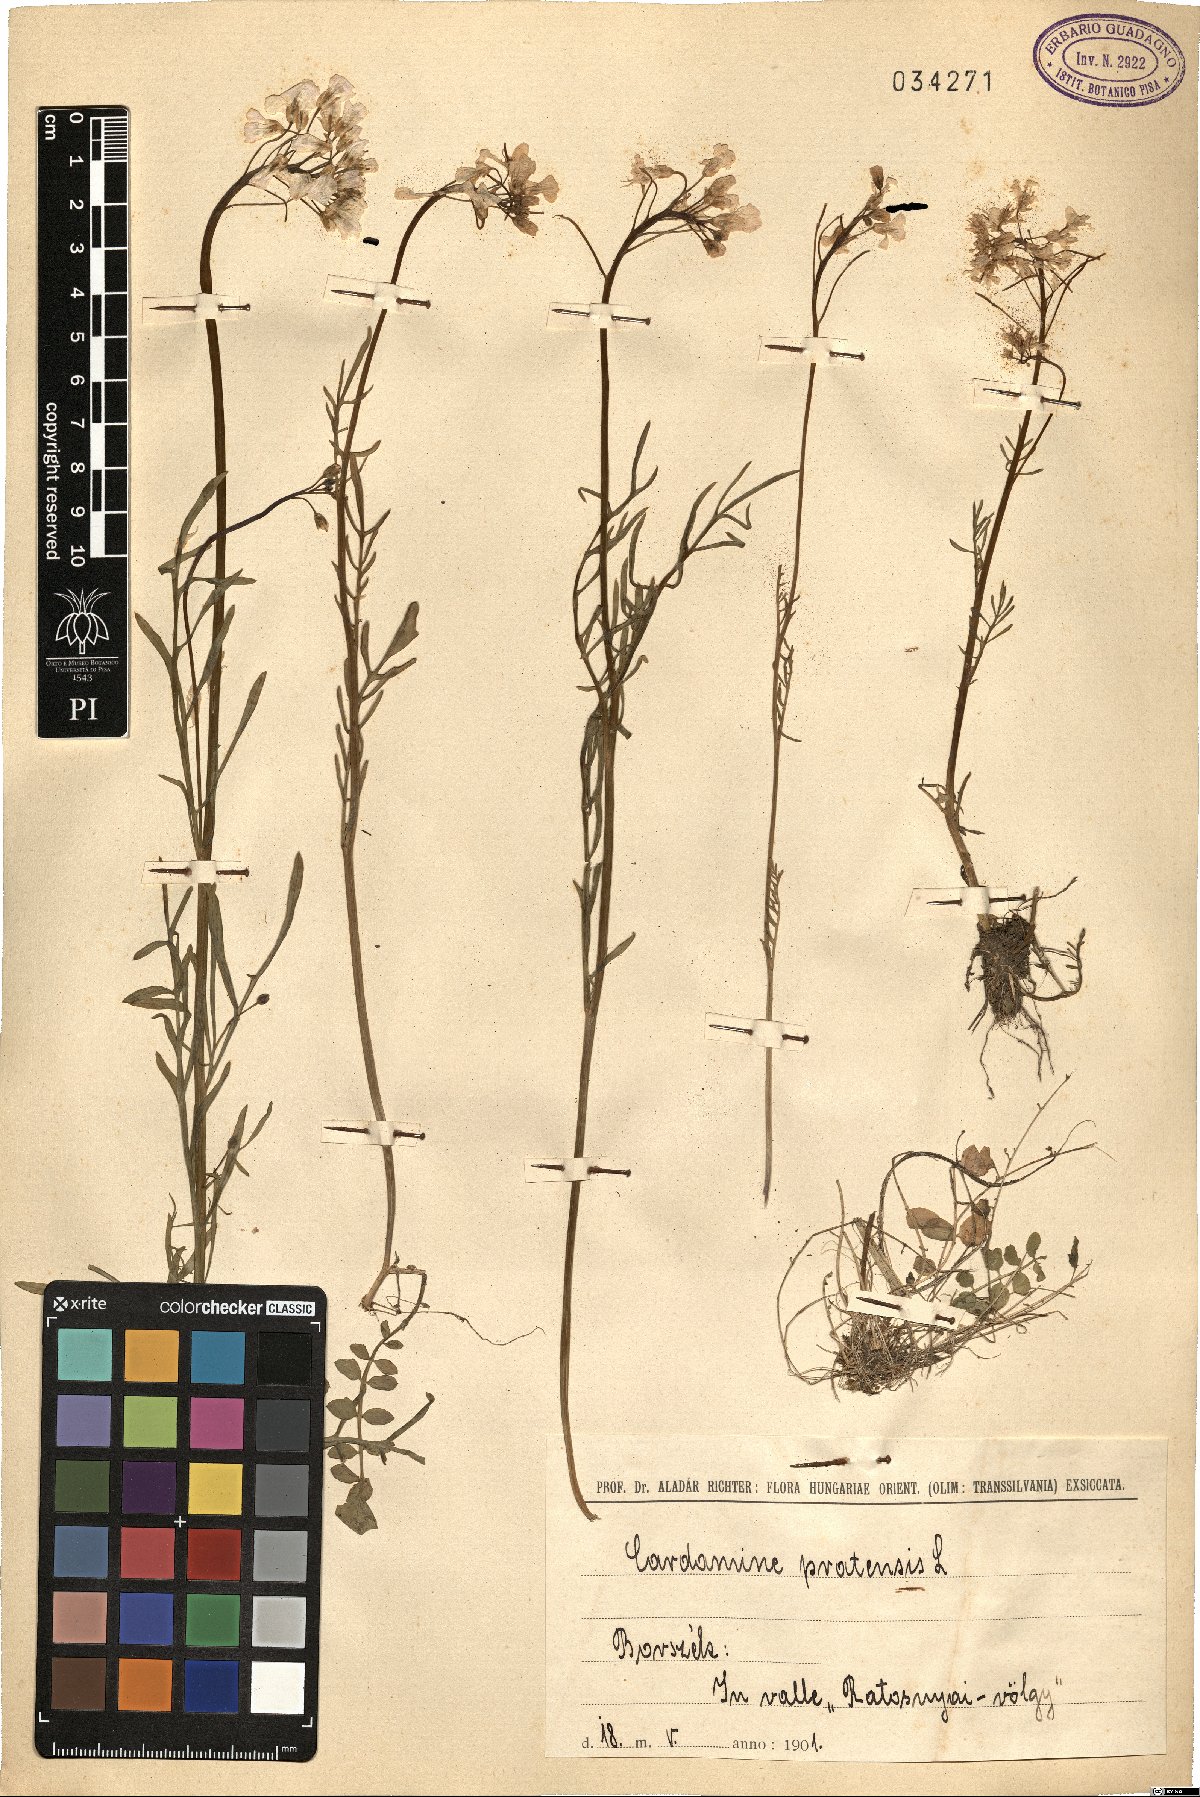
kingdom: Plantae
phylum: Tracheophyta
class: Magnoliopsida
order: Brassicales
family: Brassicaceae
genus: Cardamine
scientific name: Cardamine pratensis
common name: Cuckoo flower
